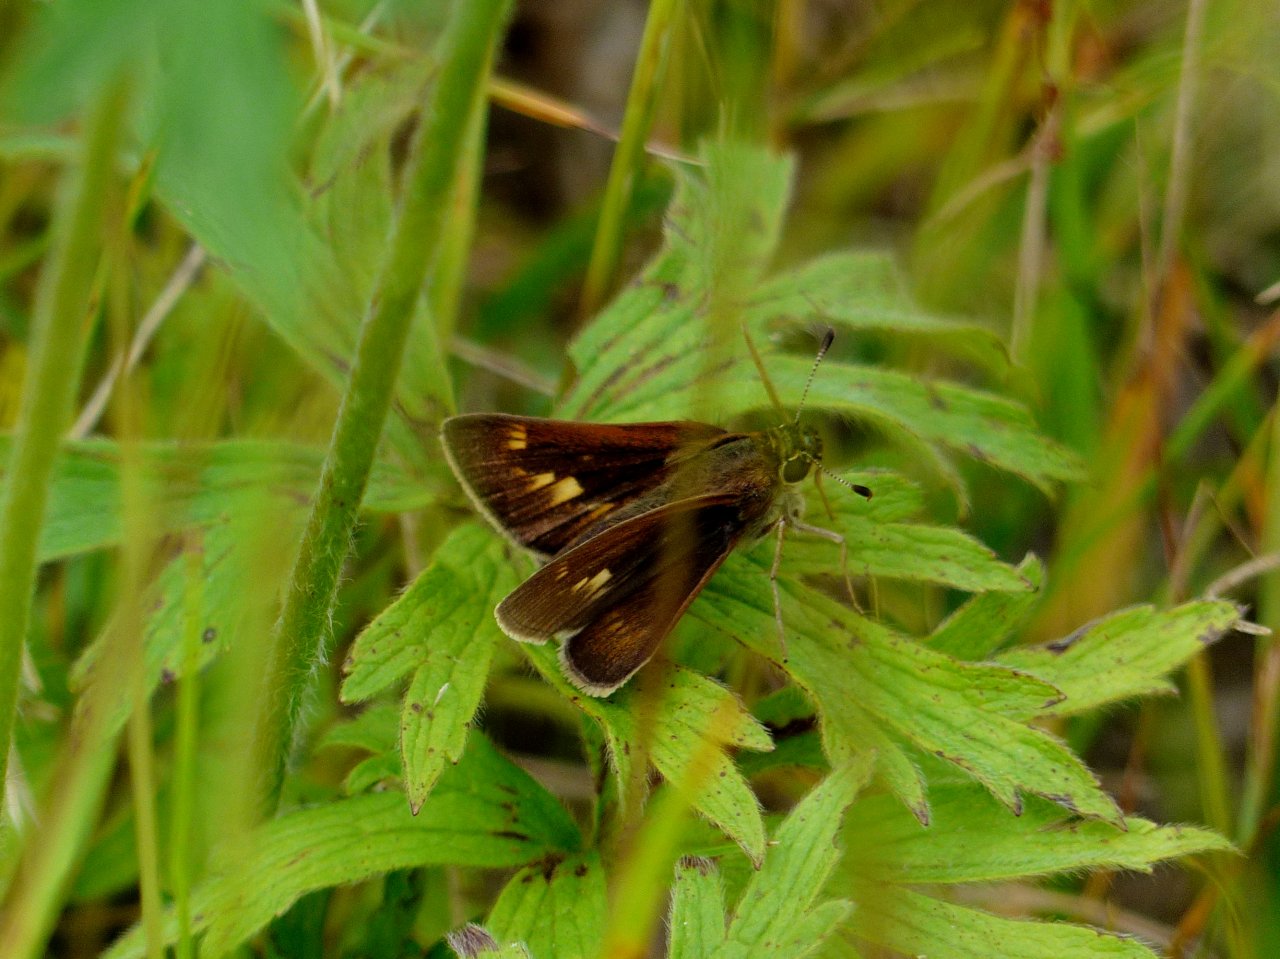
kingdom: Animalia
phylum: Arthropoda
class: Insecta
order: Lepidoptera
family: Hesperiidae
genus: Polites
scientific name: Polites
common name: Crossline Skipper
